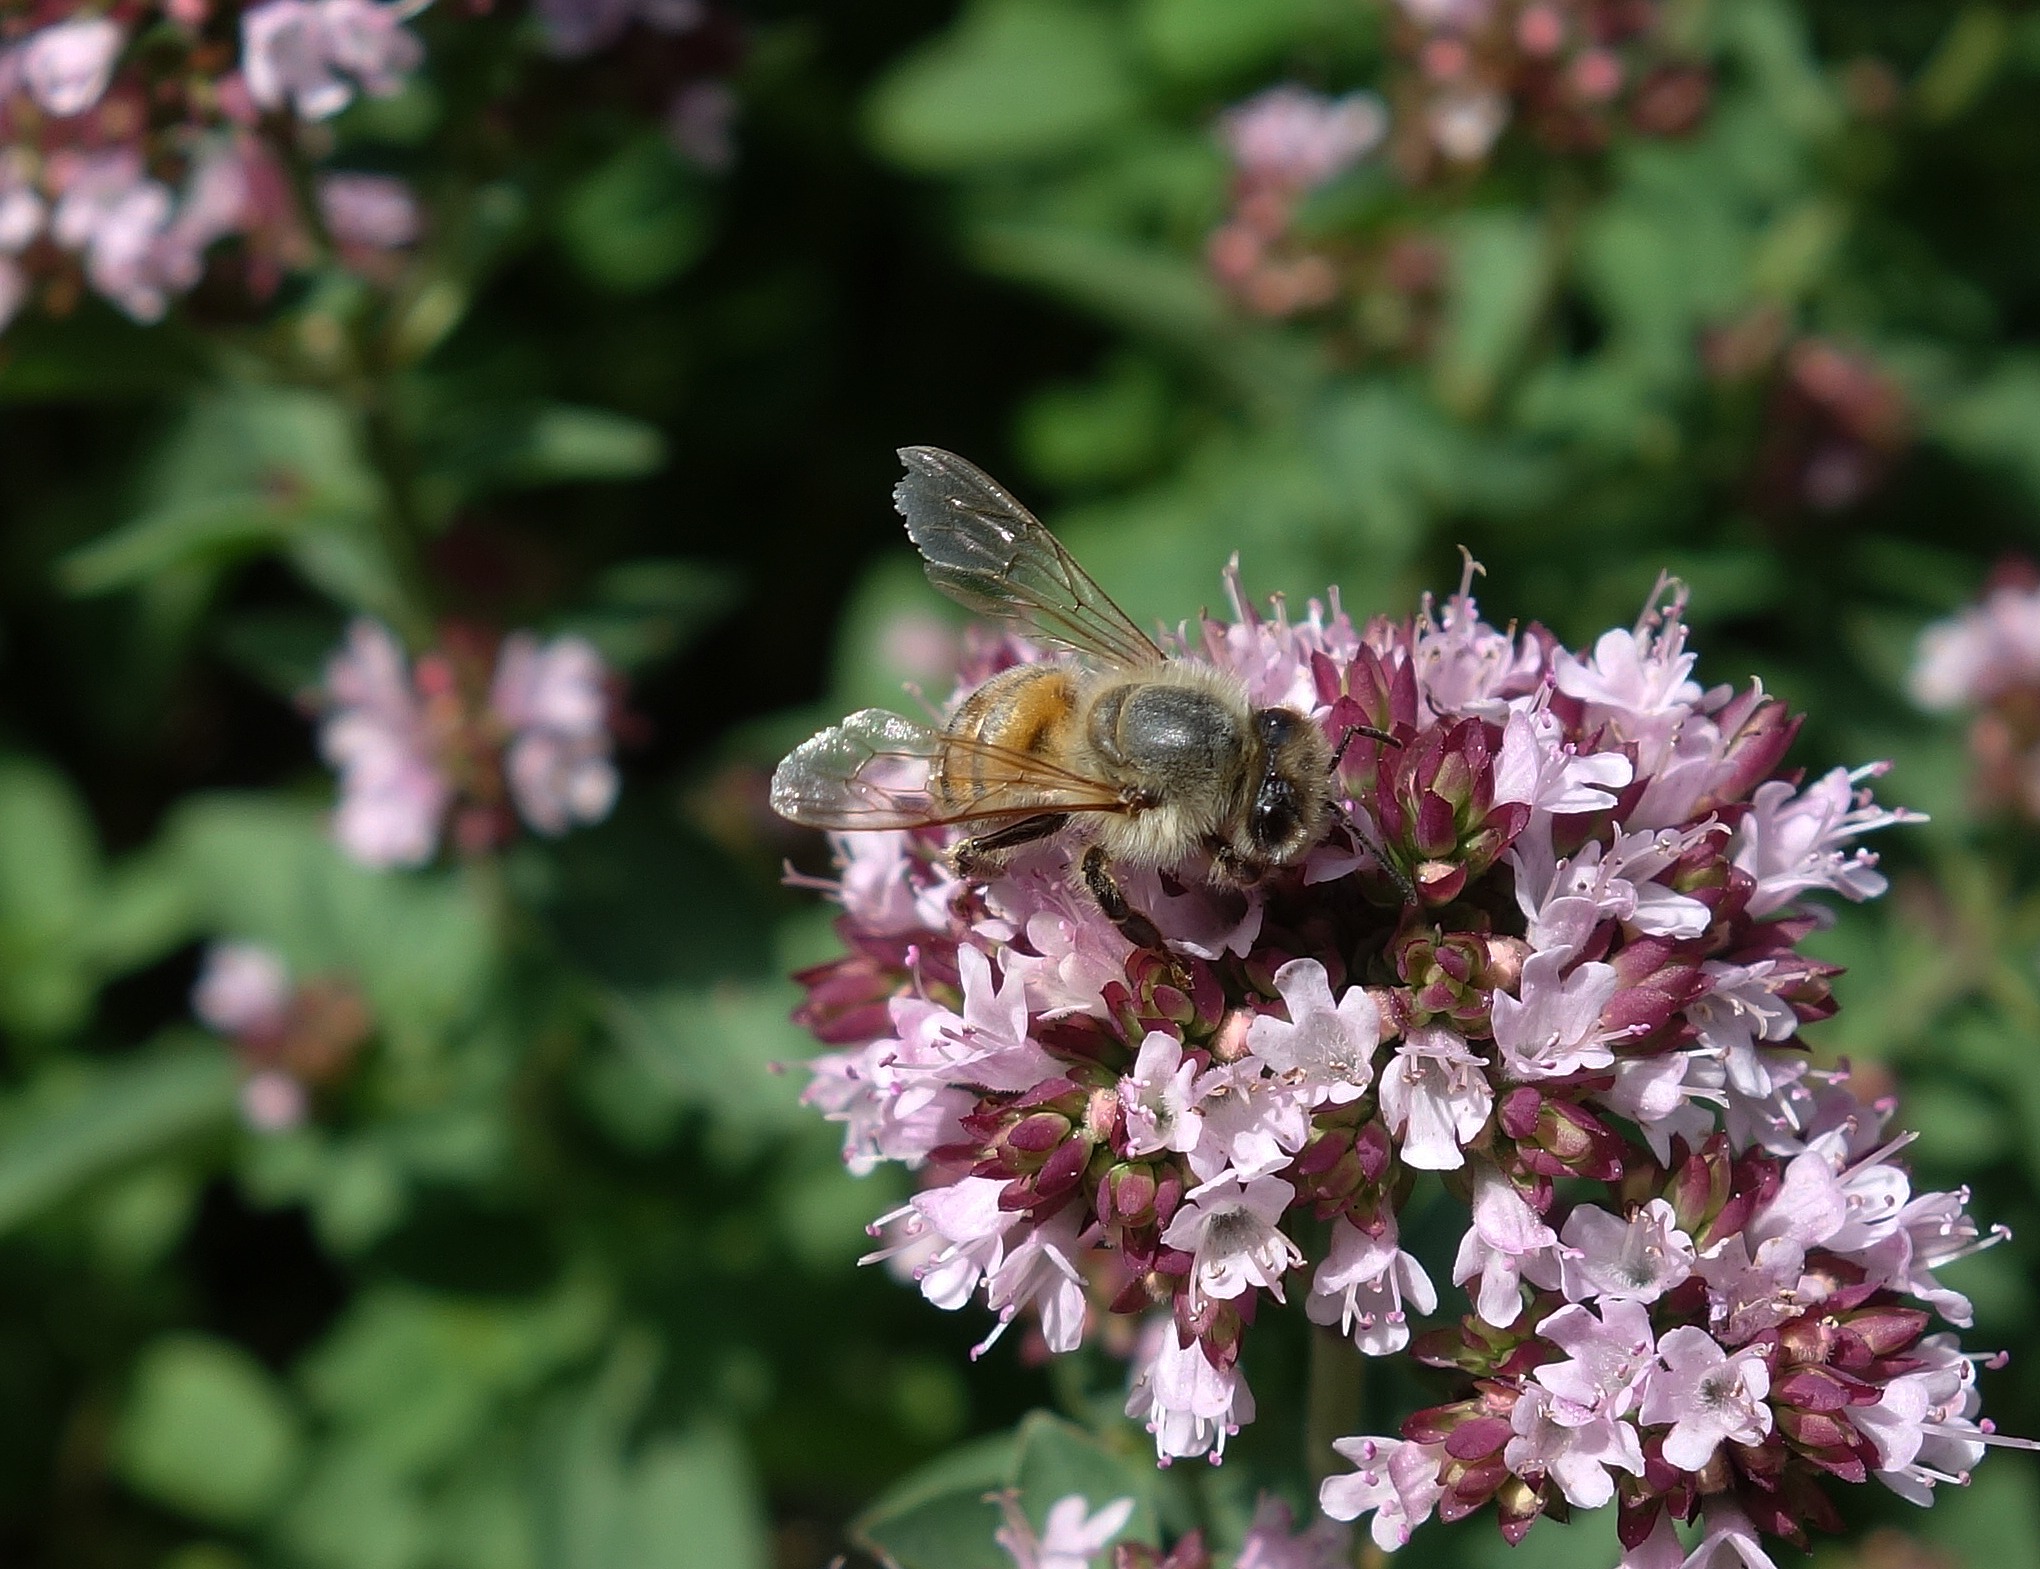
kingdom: Animalia
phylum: Arthropoda
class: Insecta
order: Hymenoptera
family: Apidae
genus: Apis
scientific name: Apis mellifera
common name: Honningbi
